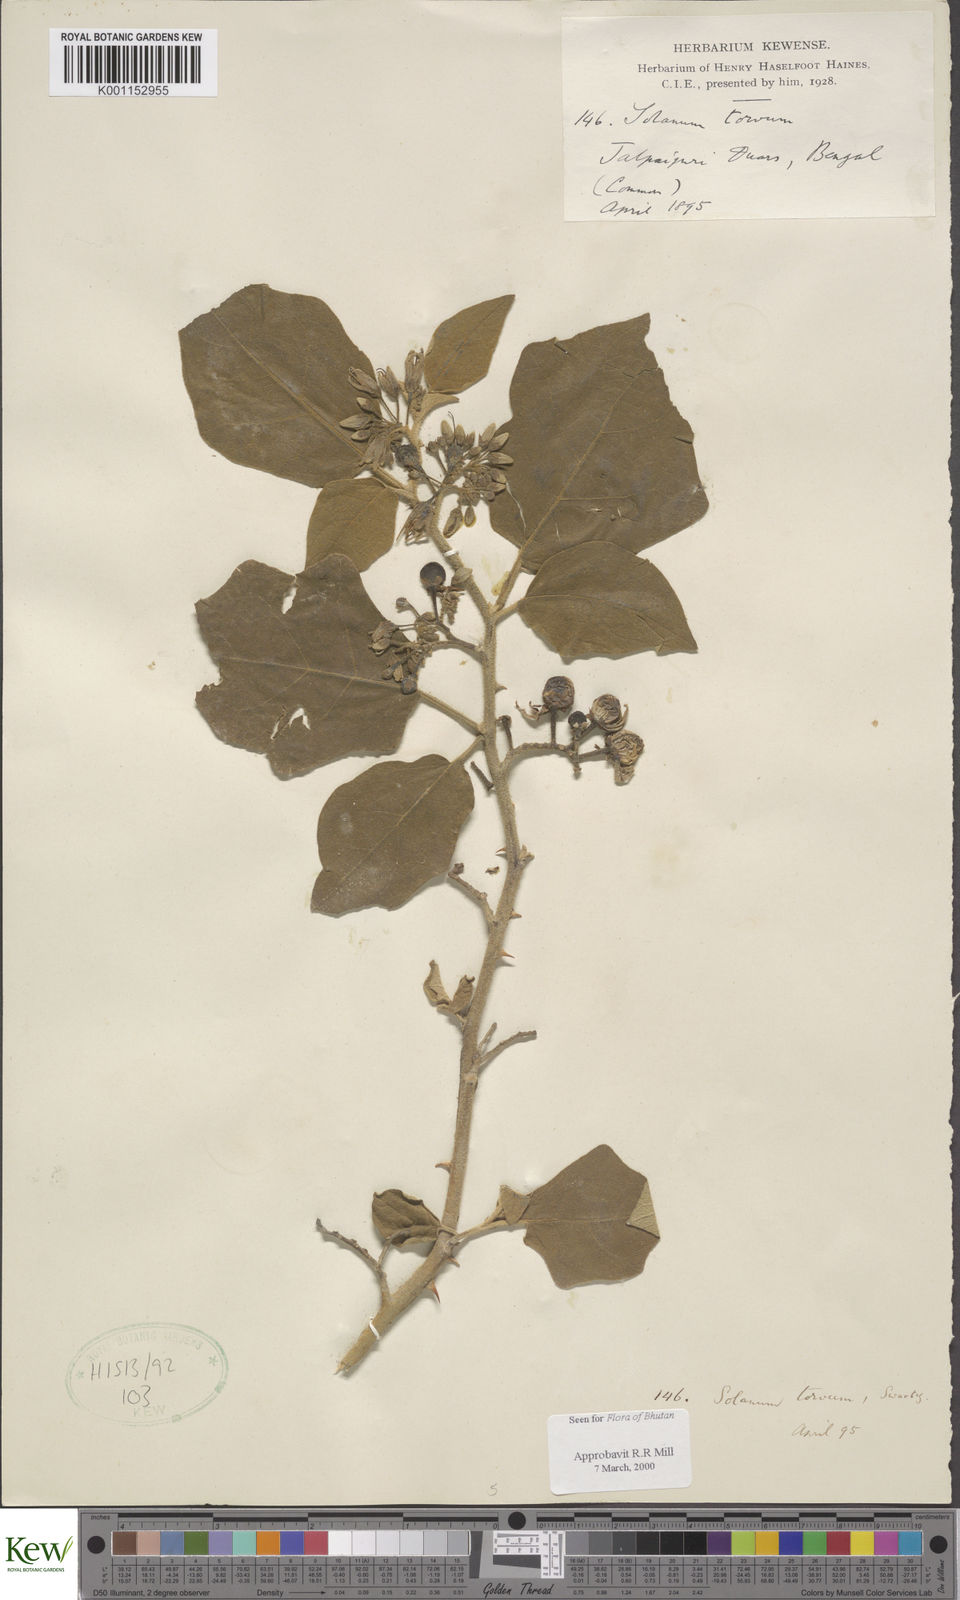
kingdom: Plantae
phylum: Tracheophyta
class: Magnoliopsida
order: Solanales
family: Solanaceae
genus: Solanum
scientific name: Solanum torvum
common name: Turkey berry
